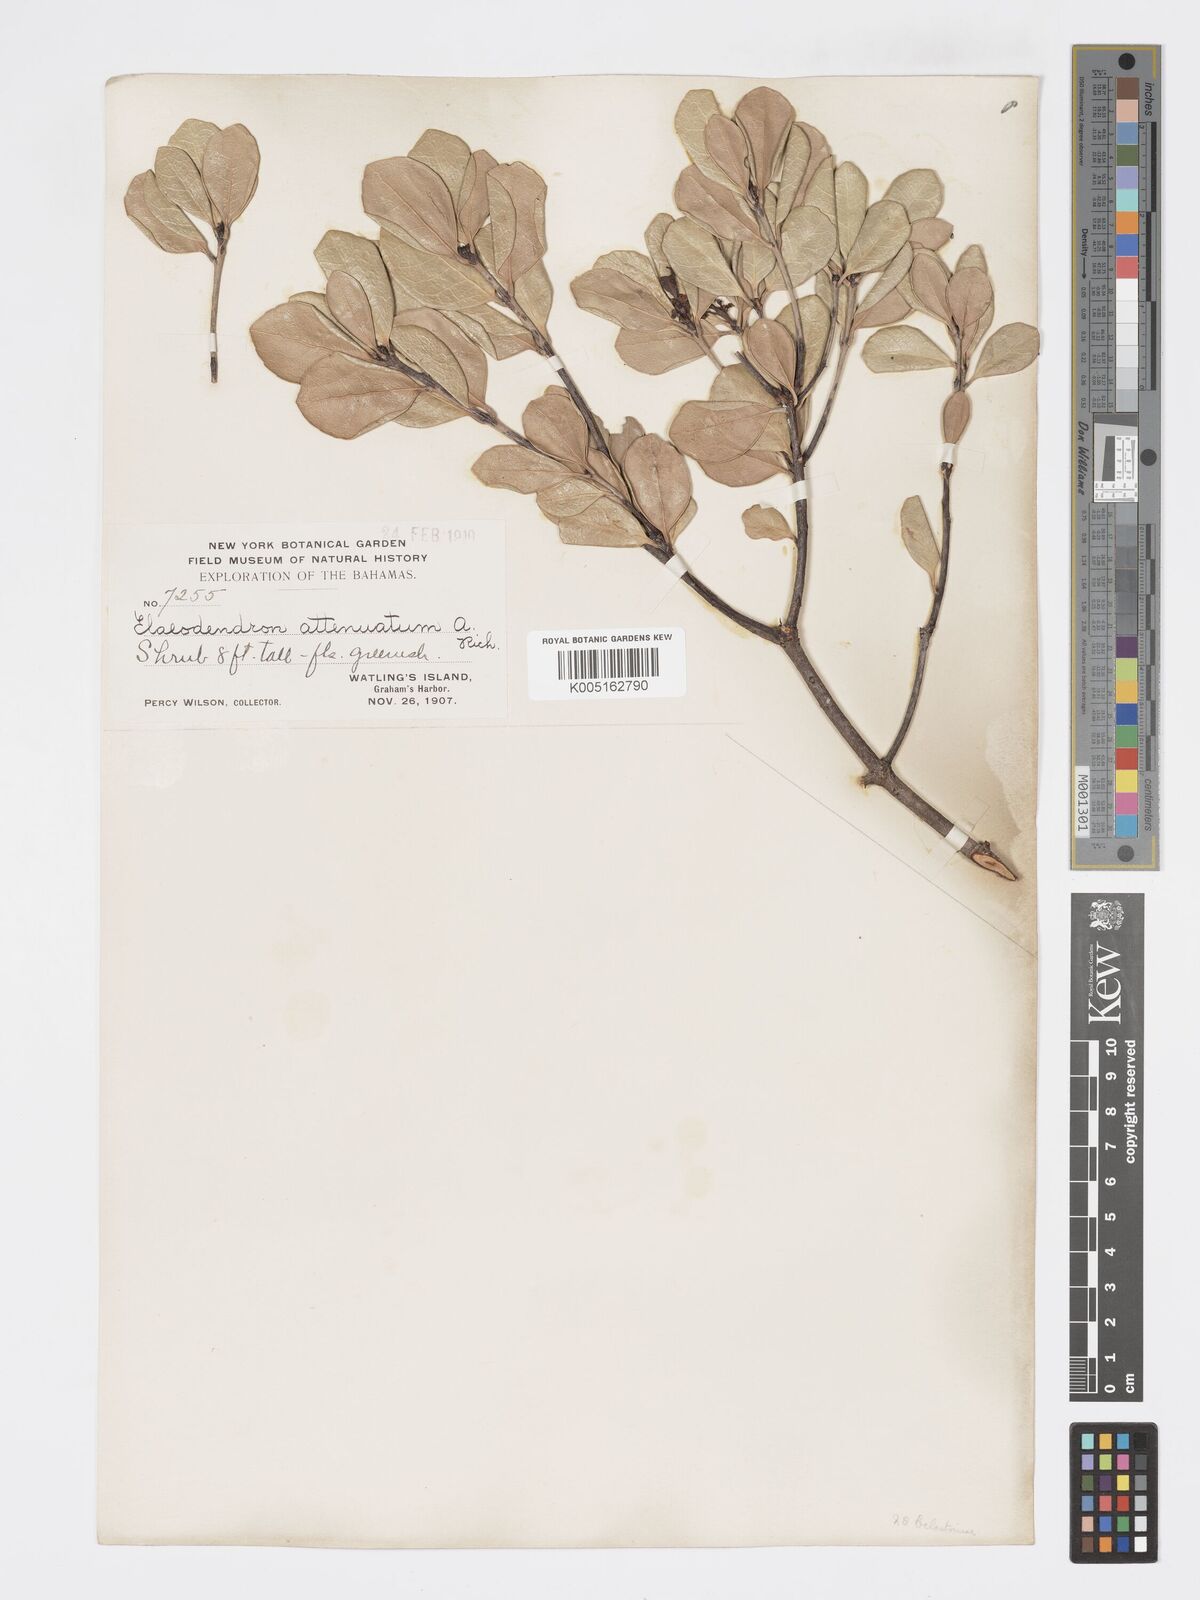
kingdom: Plantae
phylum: Tracheophyta
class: Magnoliopsida
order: Celastrales
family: Celastraceae
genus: Elaeodendron
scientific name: Elaeodendron
